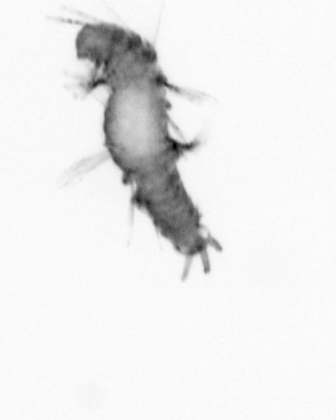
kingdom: Animalia
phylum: Annelida
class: Polychaeta
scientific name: Polychaeta
